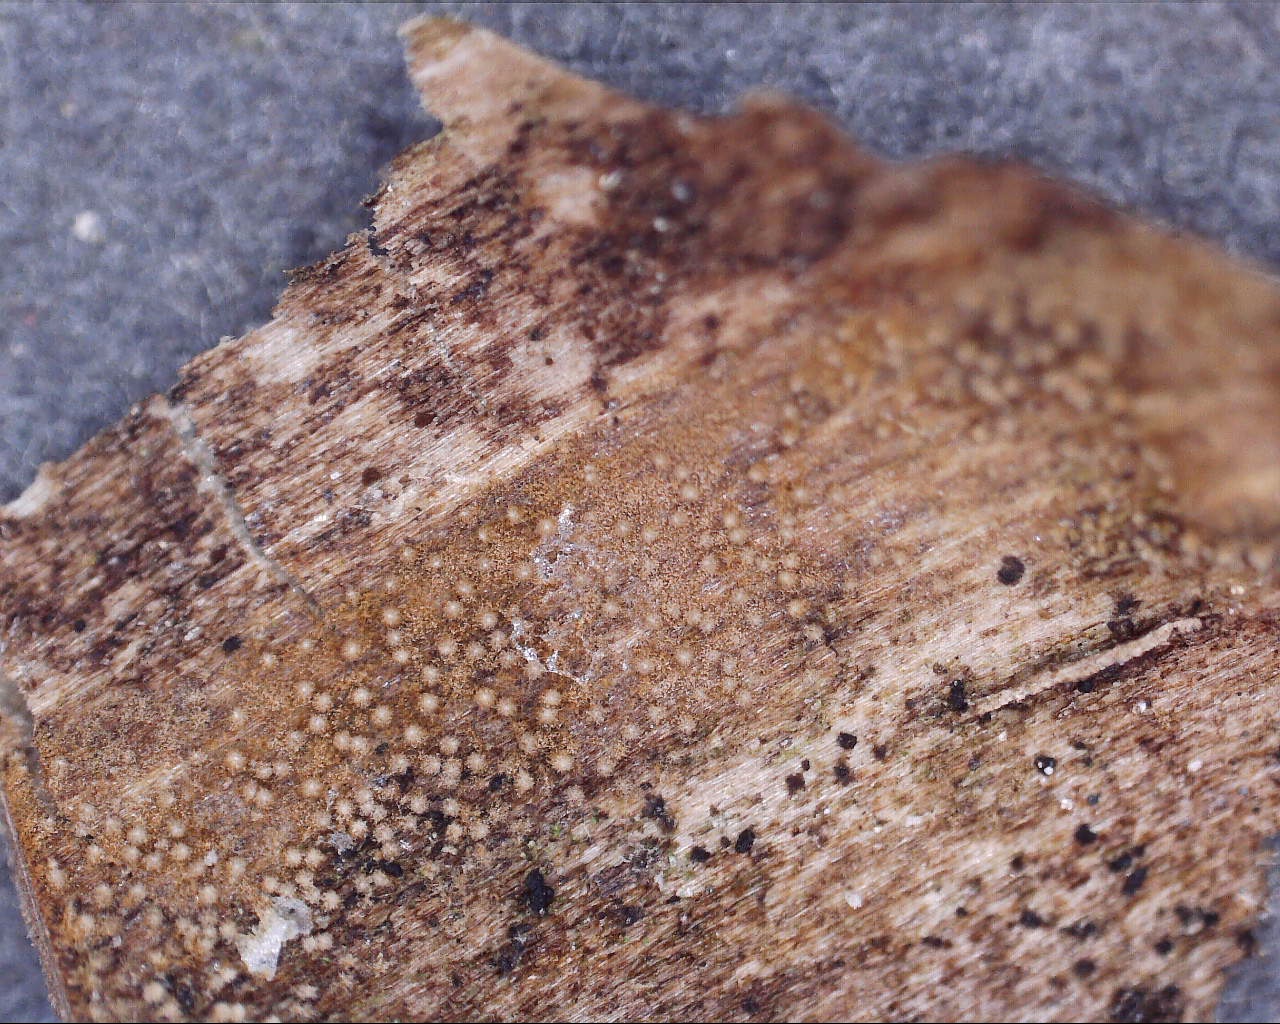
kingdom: Fungi
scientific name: Fungi
